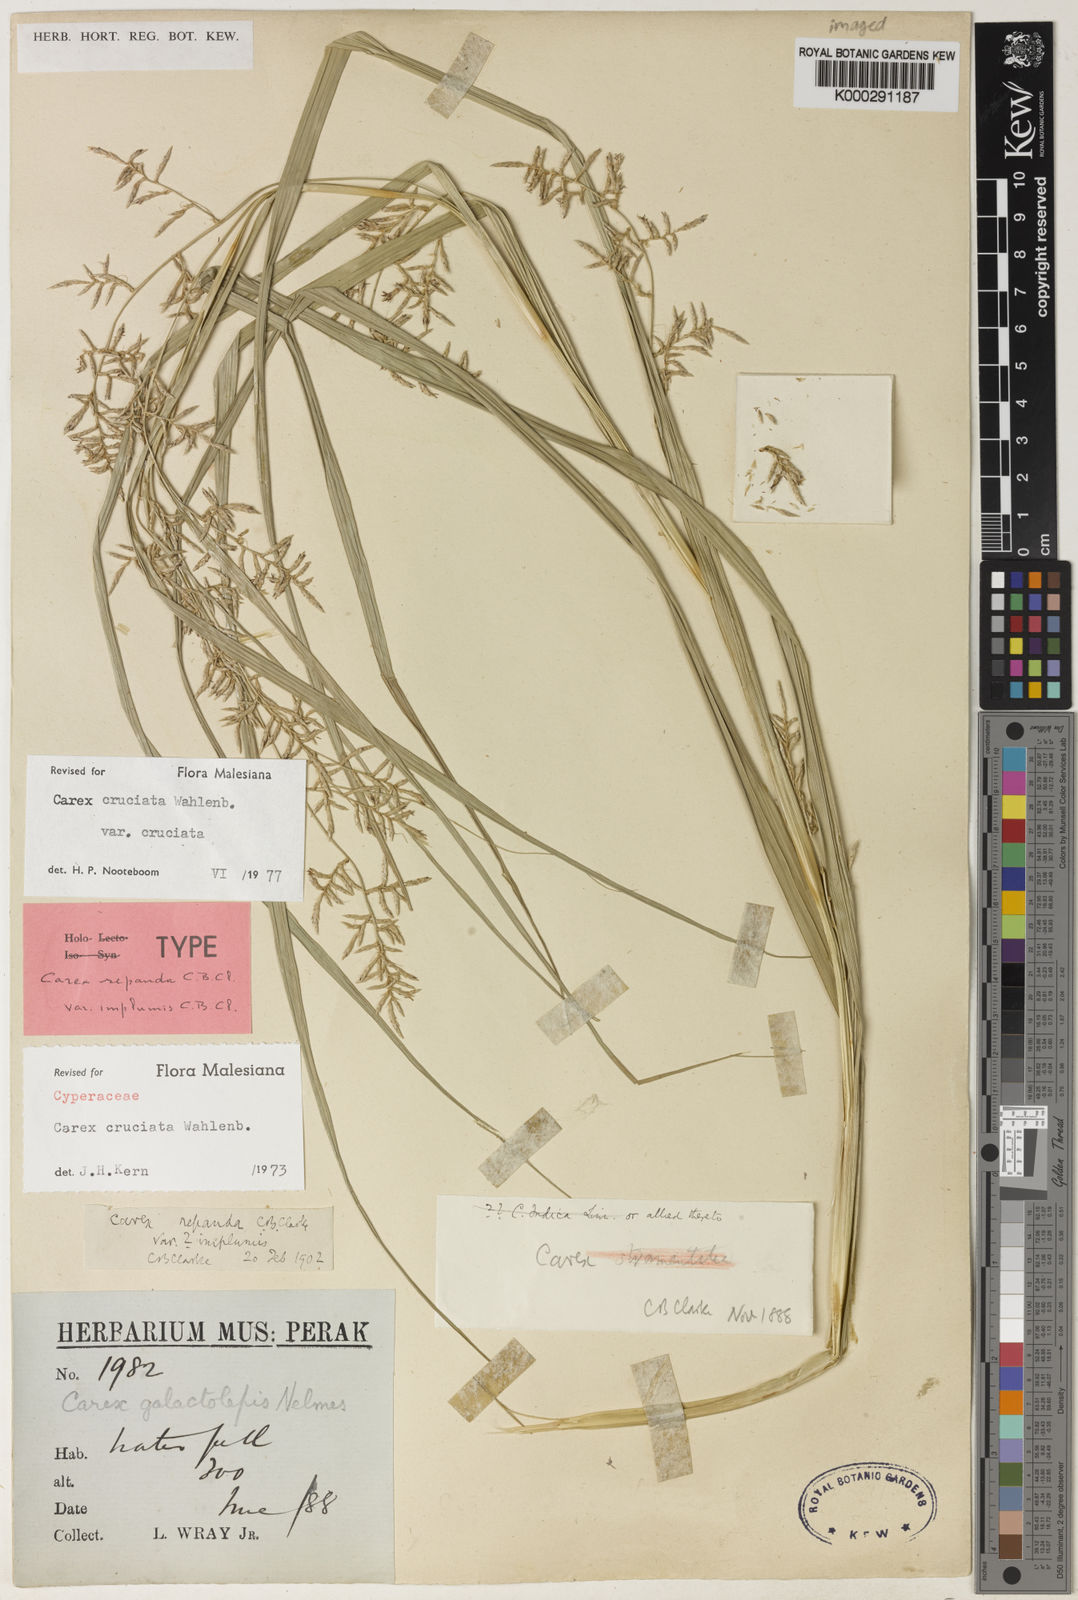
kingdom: Plantae
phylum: Tracheophyta
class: Liliopsida
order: Poales
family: Cyperaceae
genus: Carex
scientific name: Carex cruciata
